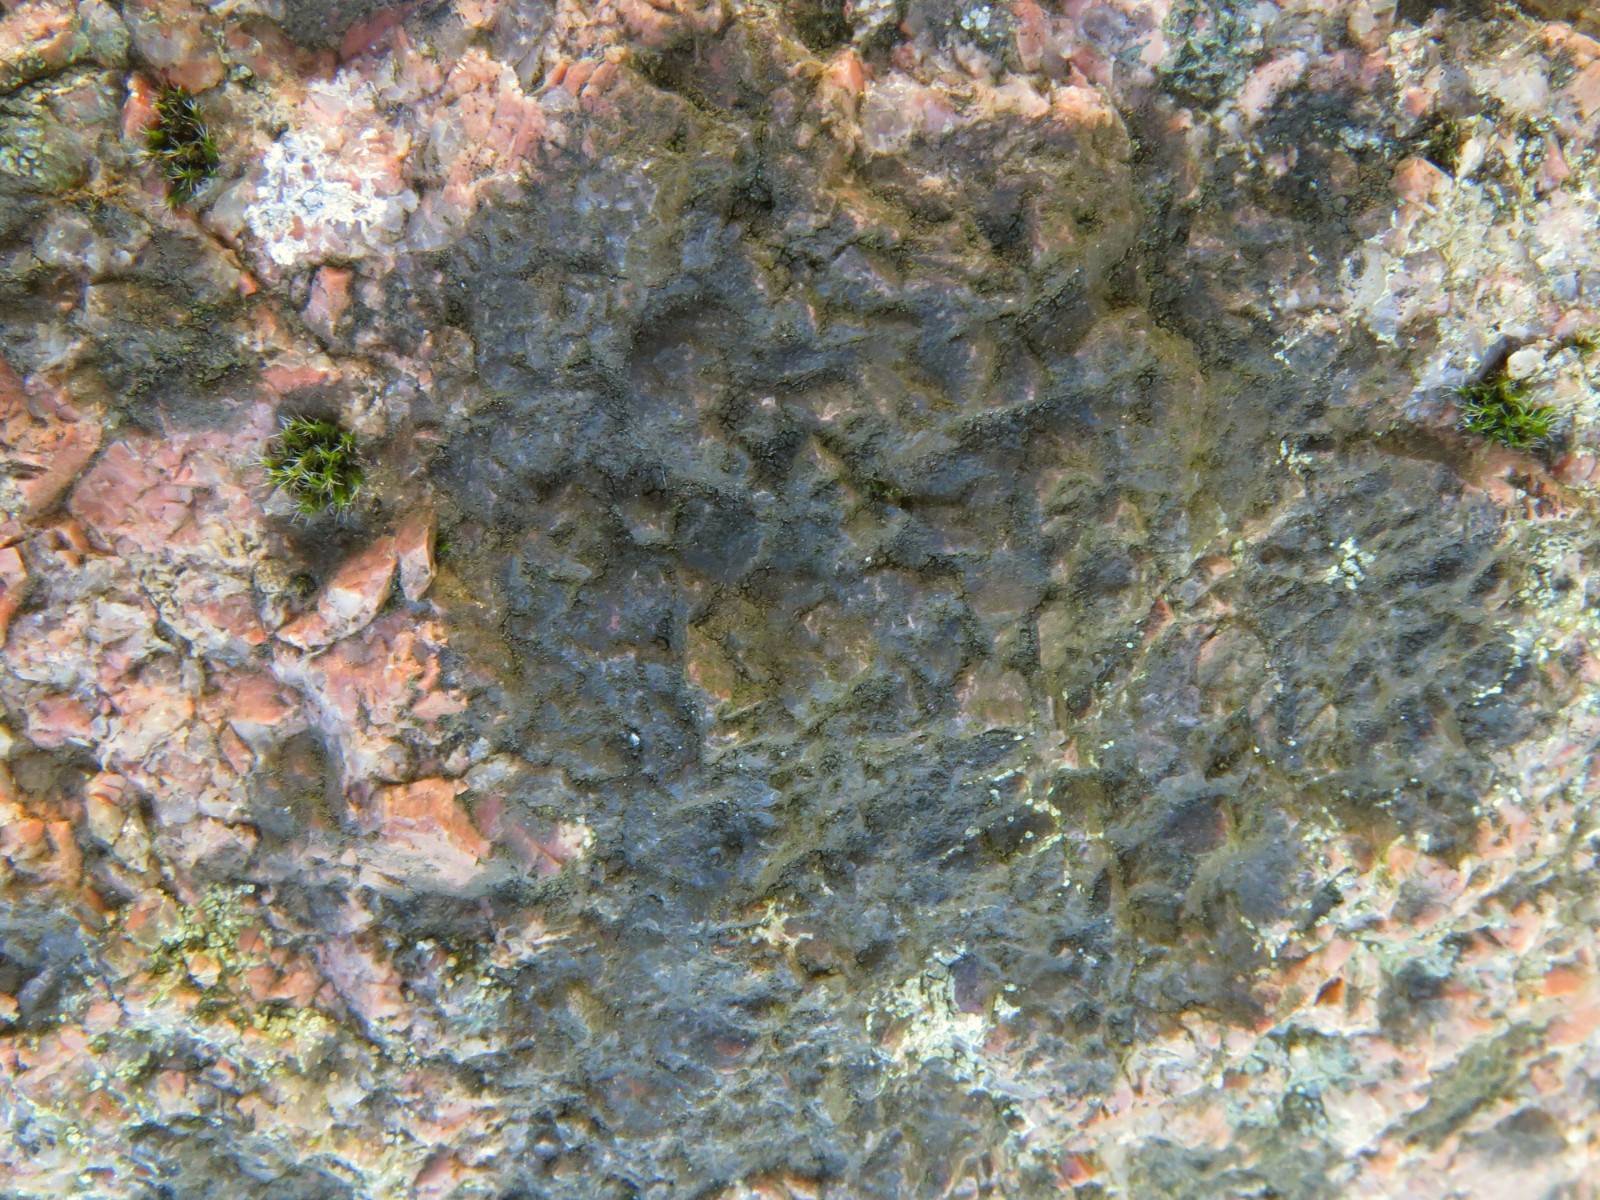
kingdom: Fungi
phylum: Ascomycota
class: Eurotiomycetes
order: Verrucariales
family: Verrucariaceae
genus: Verrucaria
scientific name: Verrucaria
